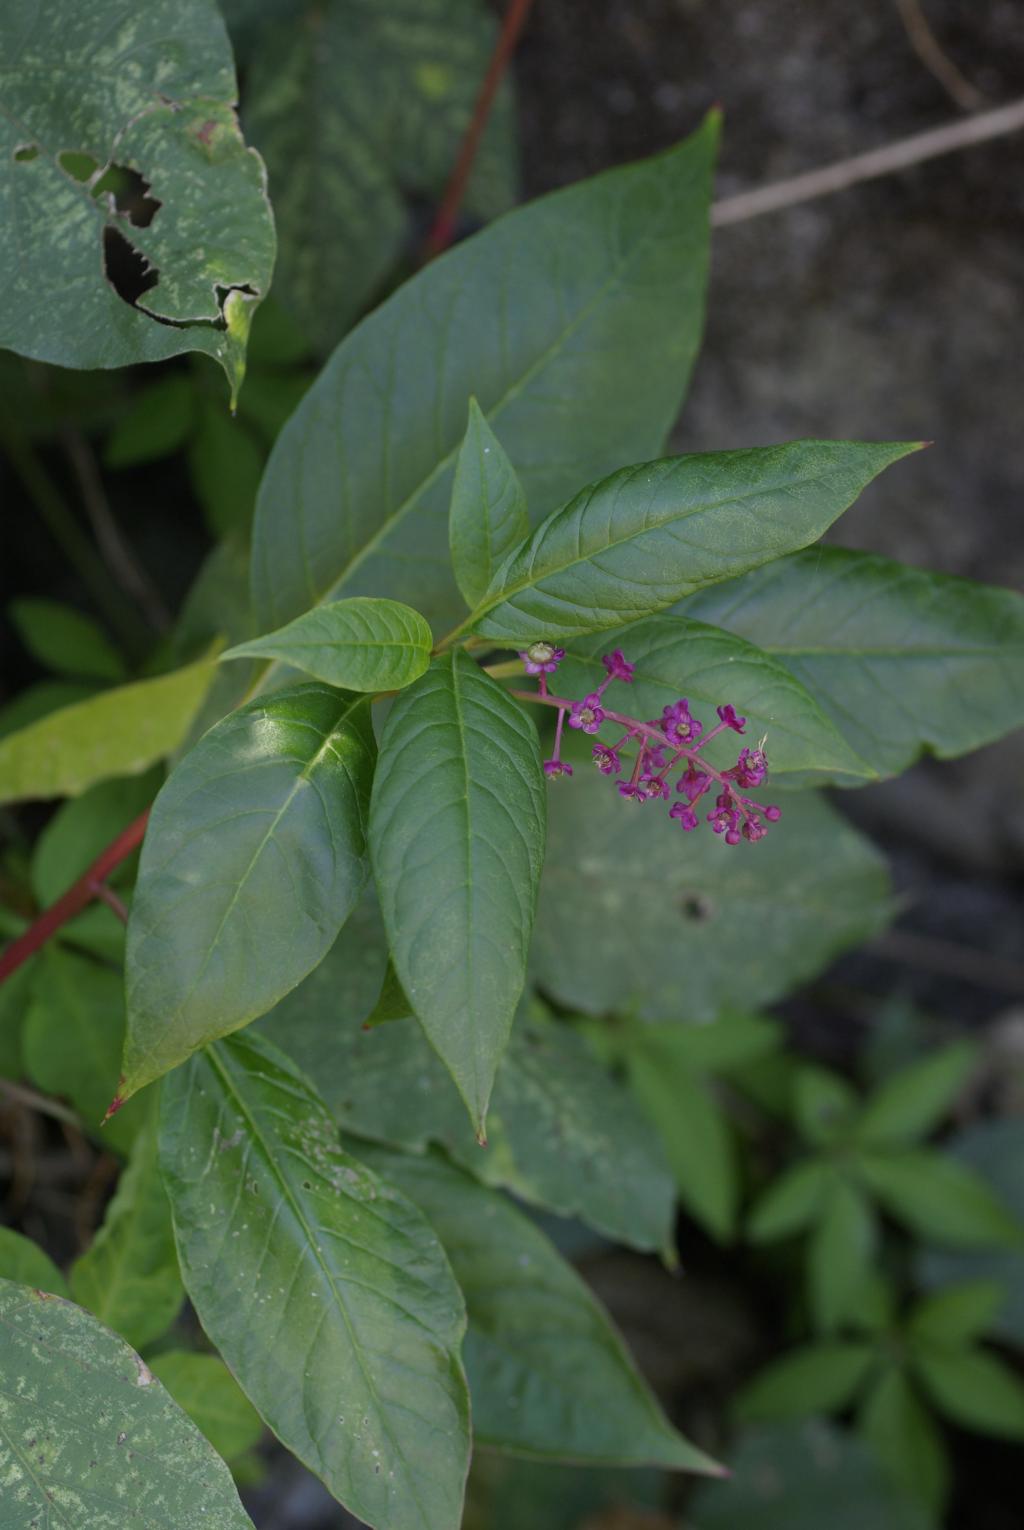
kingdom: Plantae
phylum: Tracheophyta
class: Magnoliopsida
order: Caryophyllales
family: Phytolaccaceae
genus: Phytolacca
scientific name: Phytolacca americana
